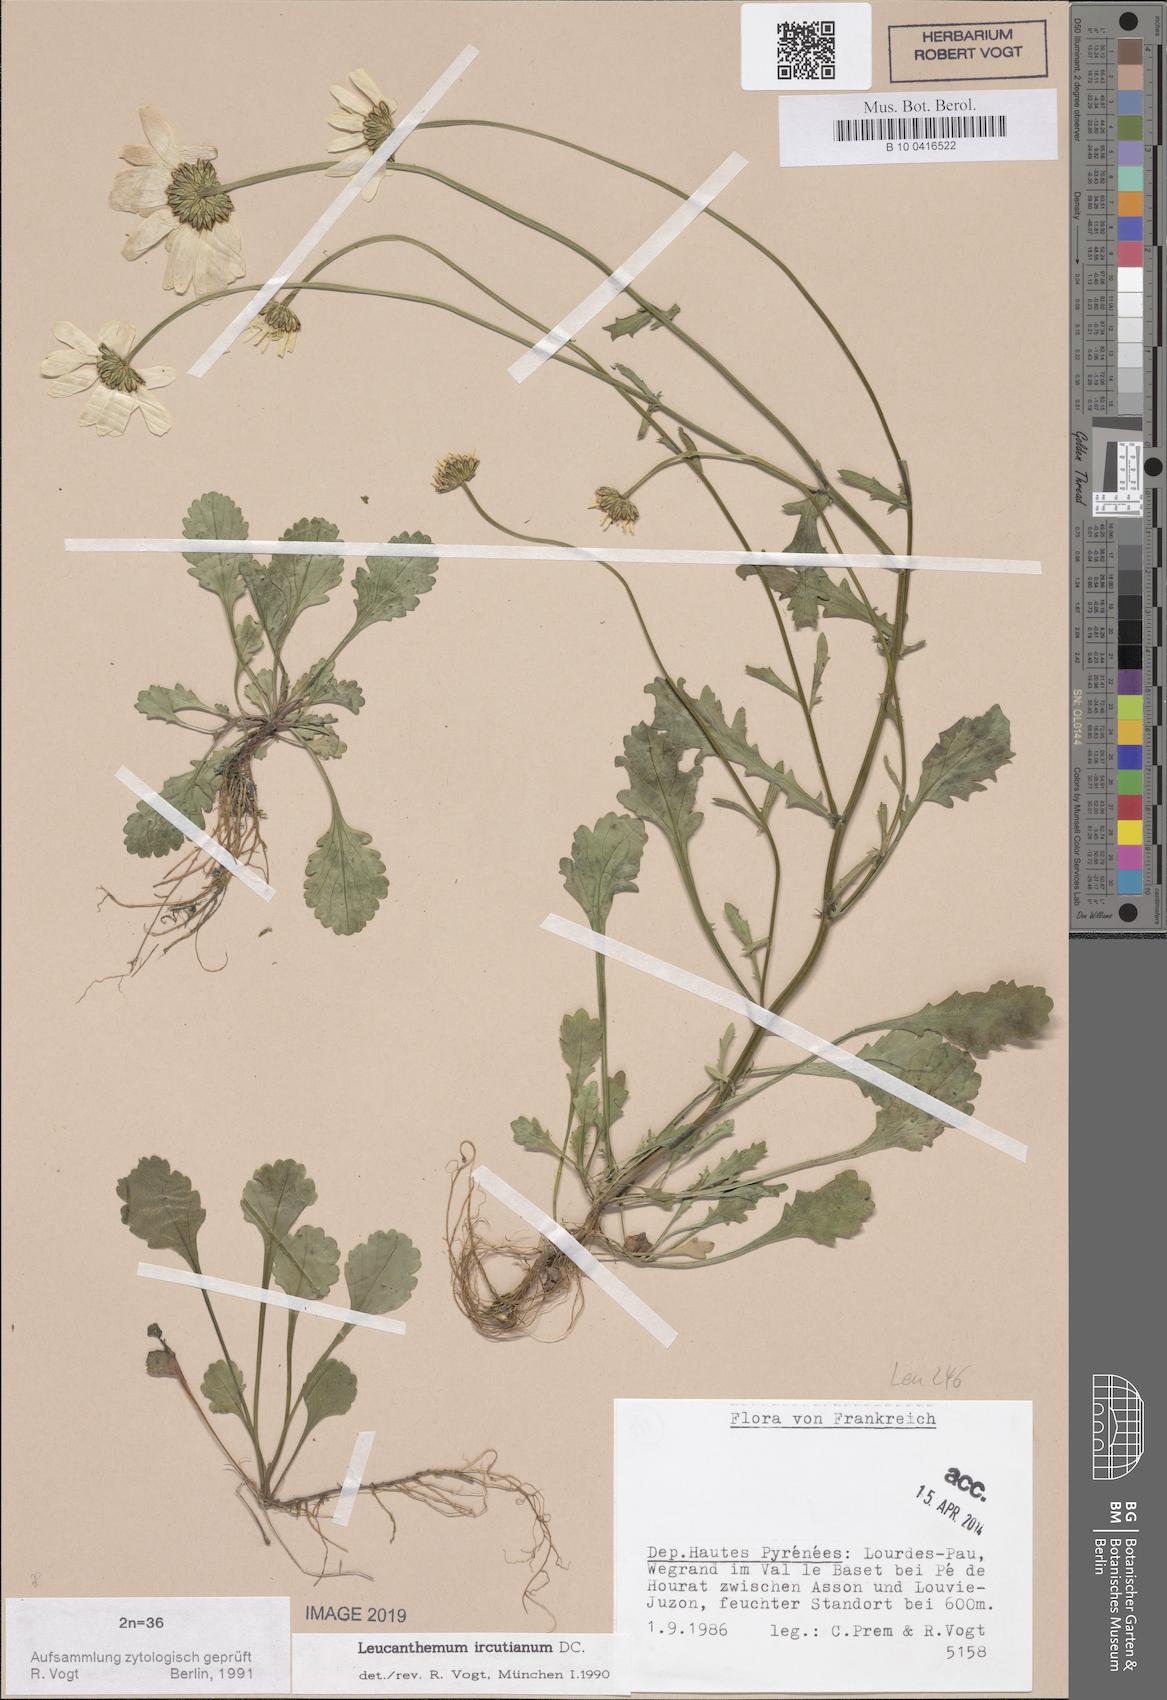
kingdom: Plantae
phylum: Tracheophyta
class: Magnoliopsida
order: Asterales
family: Asteraceae
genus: Leucanthemum
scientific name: Leucanthemum ircutianum
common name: Daisy
